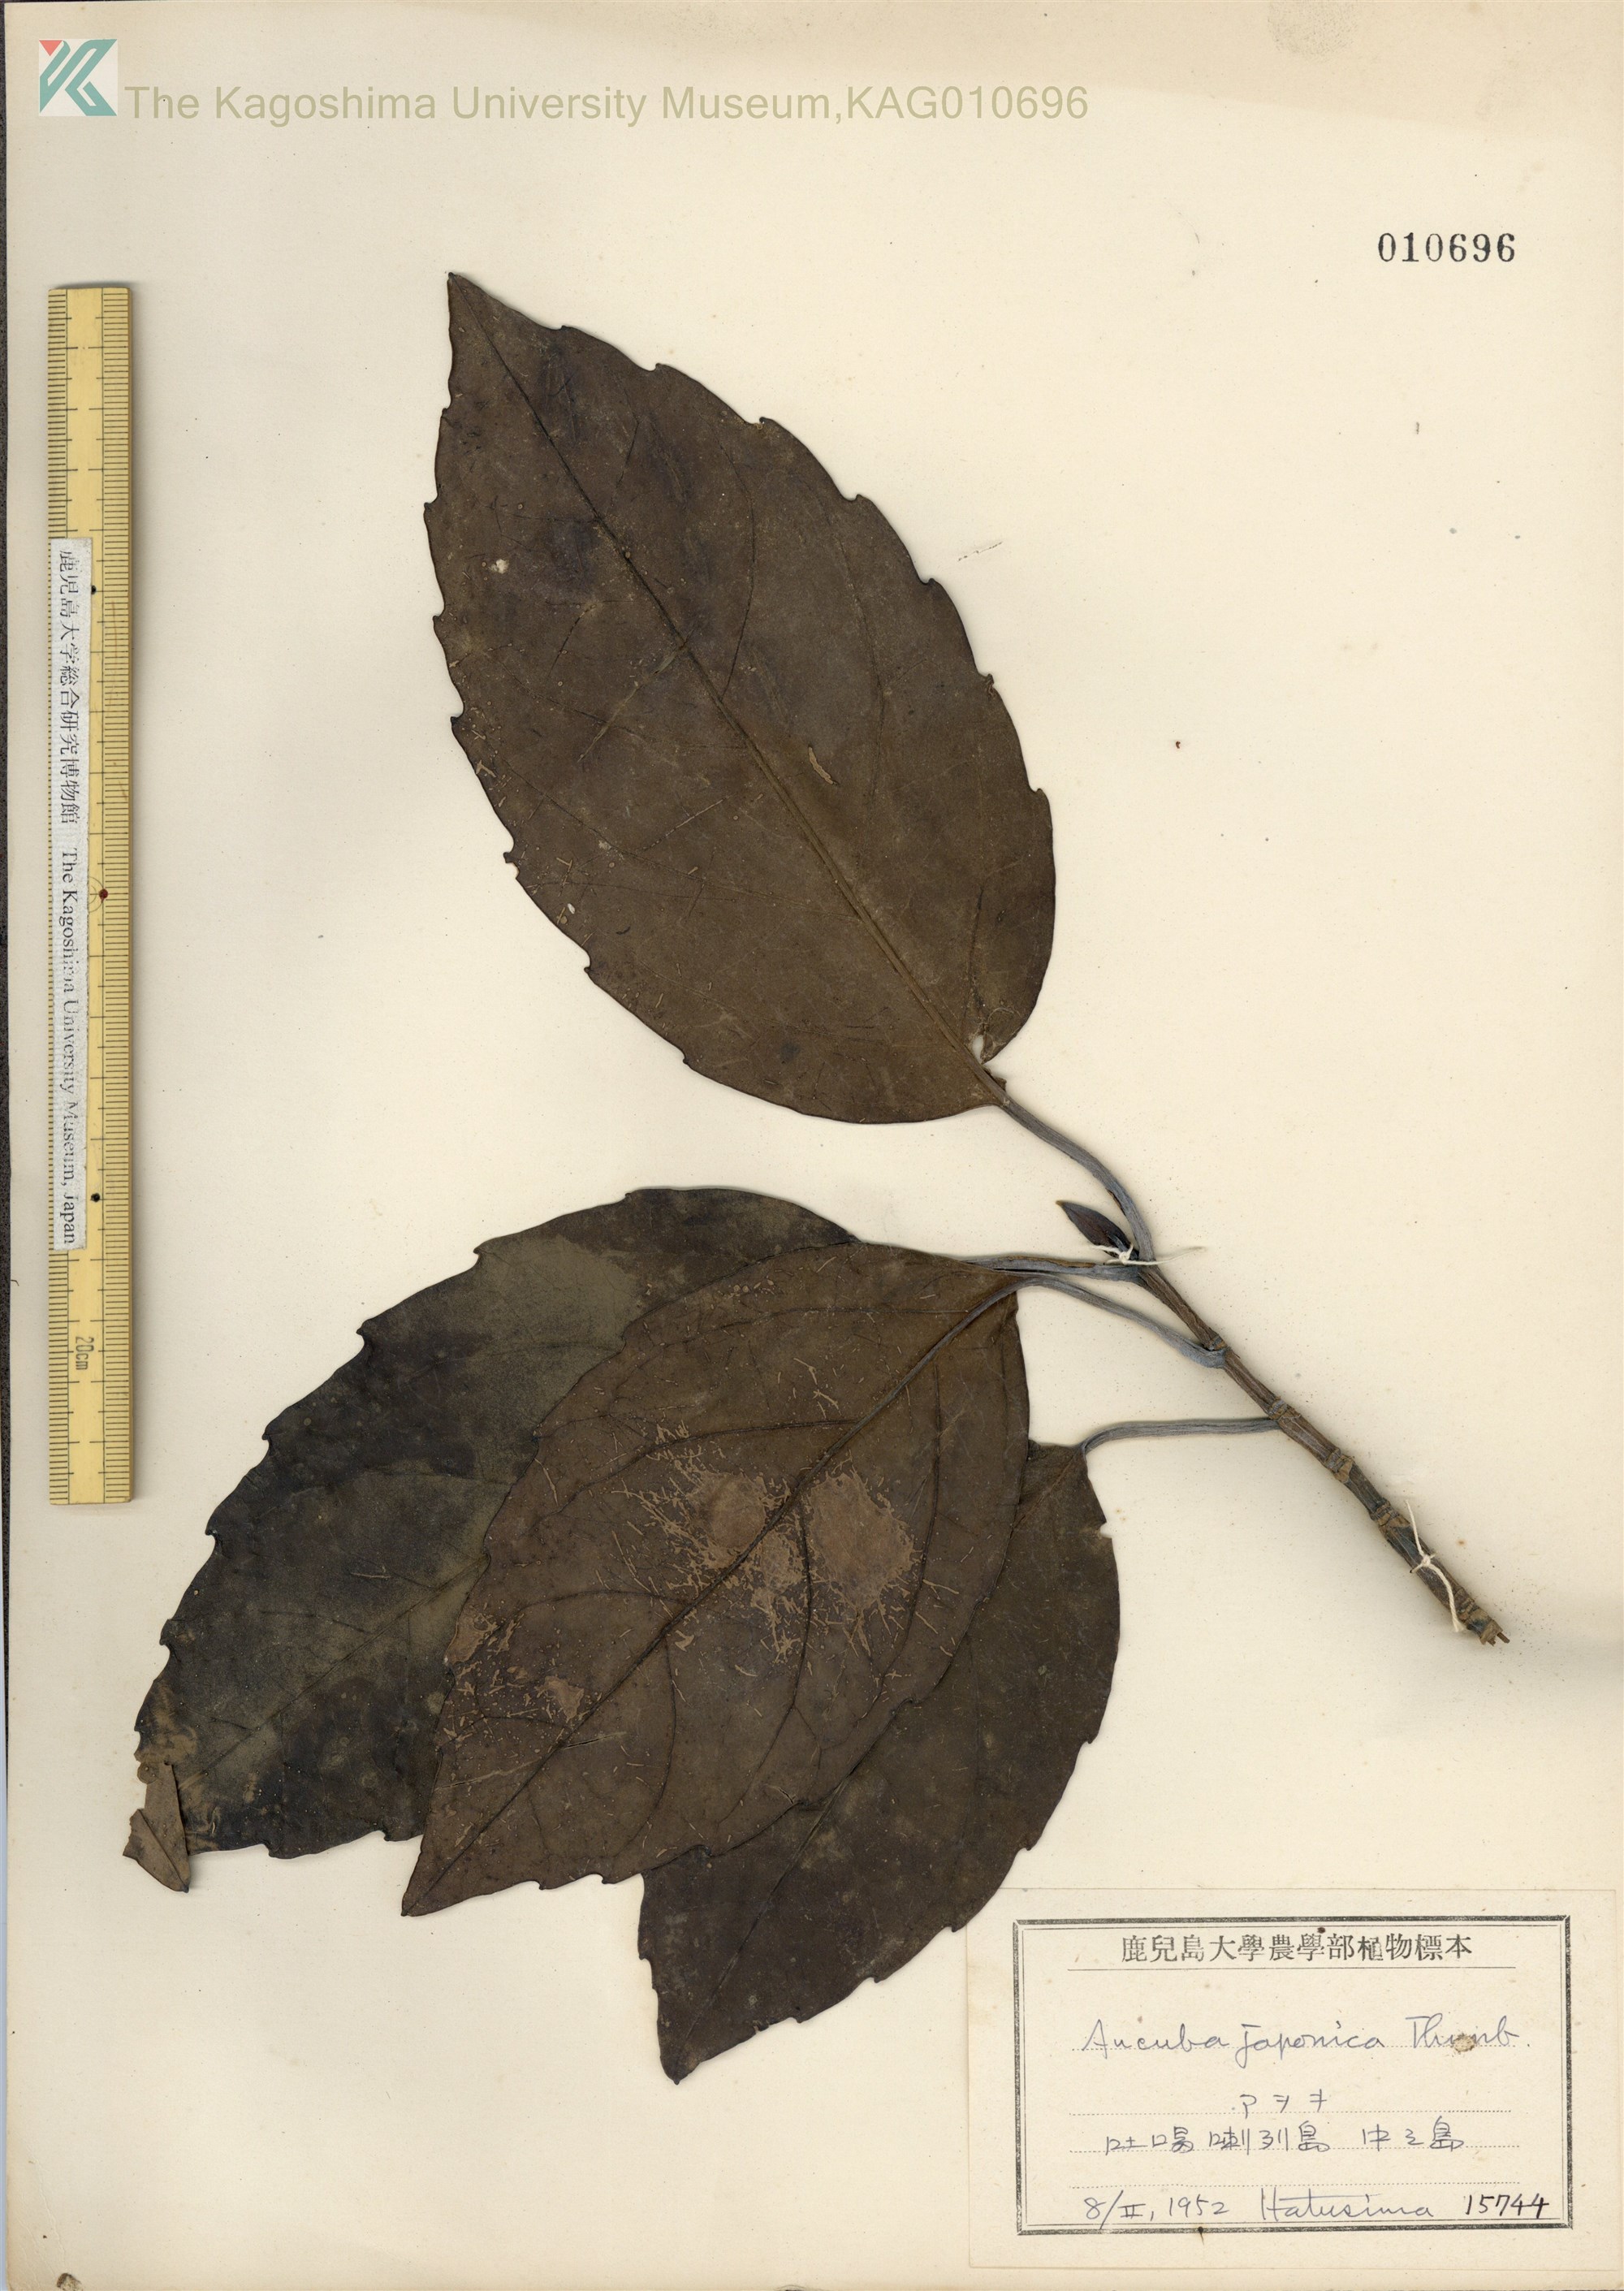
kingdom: Plantae
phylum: Tracheophyta
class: Magnoliopsida
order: Garryales
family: Garryaceae
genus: Aucuba
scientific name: Aucuba japonica
